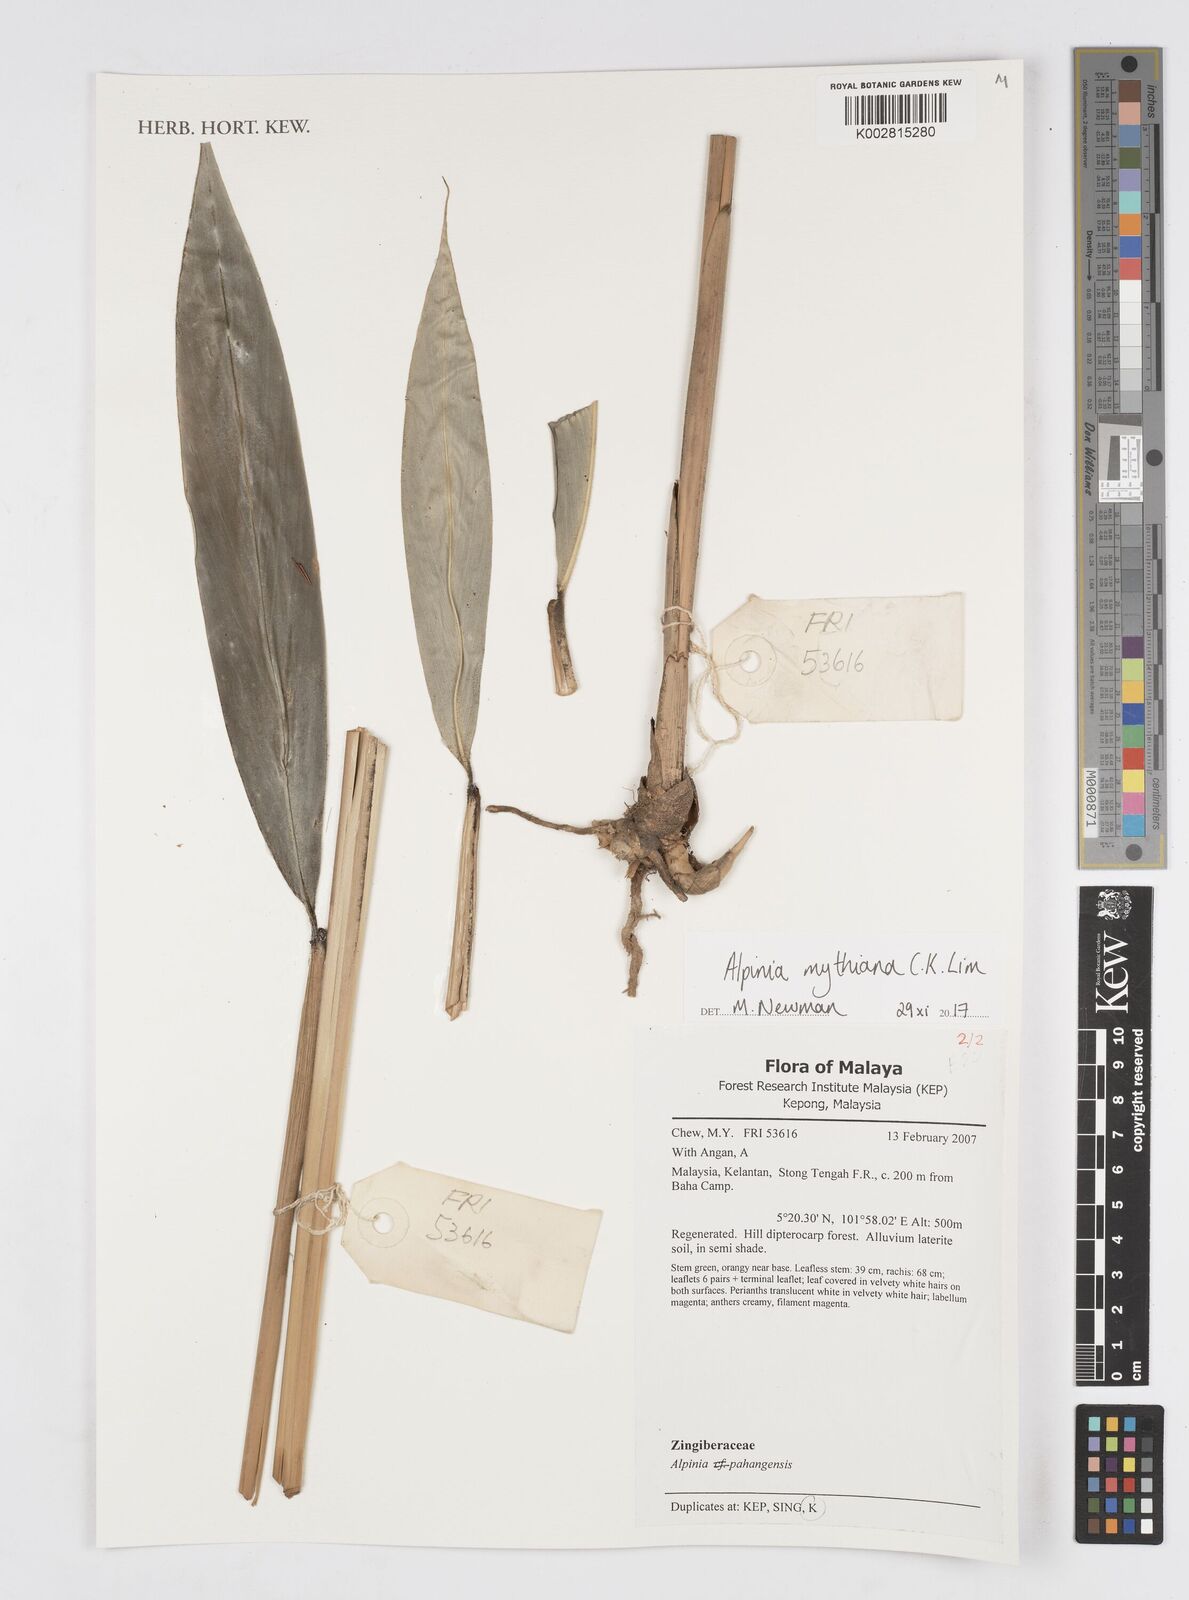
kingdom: Plantae
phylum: Tracheophyta
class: Liliopsida
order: Zingiberales
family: Zingiberaceae
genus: Alpinia
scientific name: Alpinia rafflesiana
